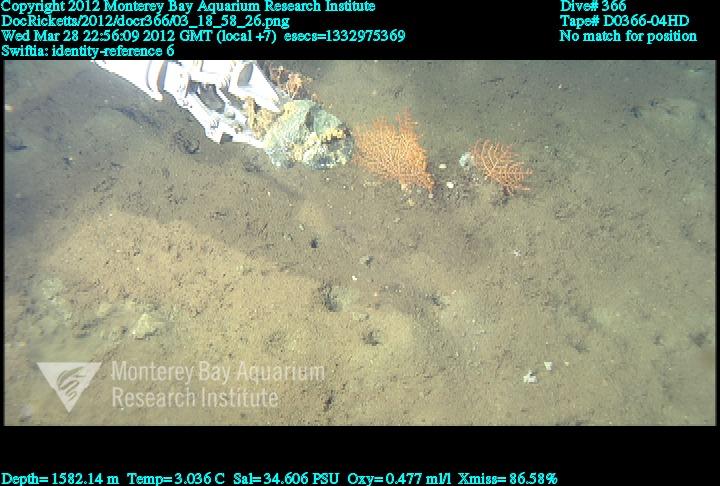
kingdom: Animalia
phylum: Cnidaria
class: Anthozoa
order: Malacalcyonacea
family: Plexauridae
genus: Swiftia
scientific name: Swiftia
